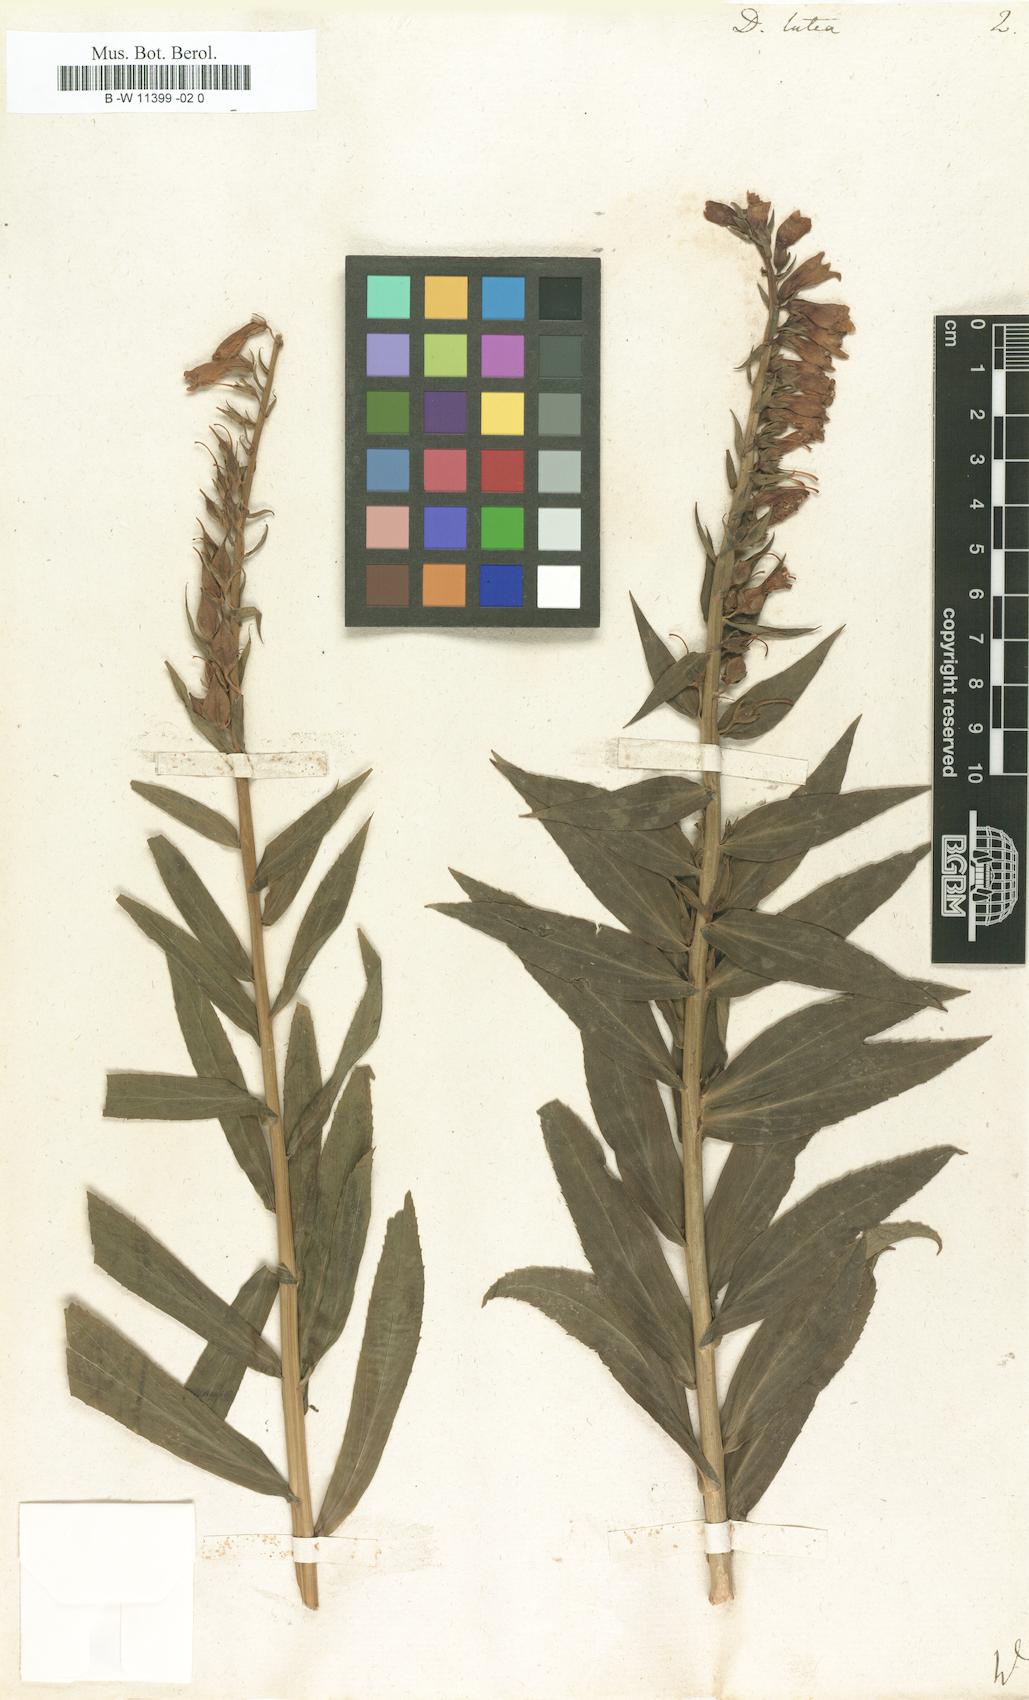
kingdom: Plantae
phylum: Tracheophyta
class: Magnoliopsida
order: Lamiales
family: Plantaginaceae
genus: Digitalis
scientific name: Digitalis lutea
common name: Straw foxglove
